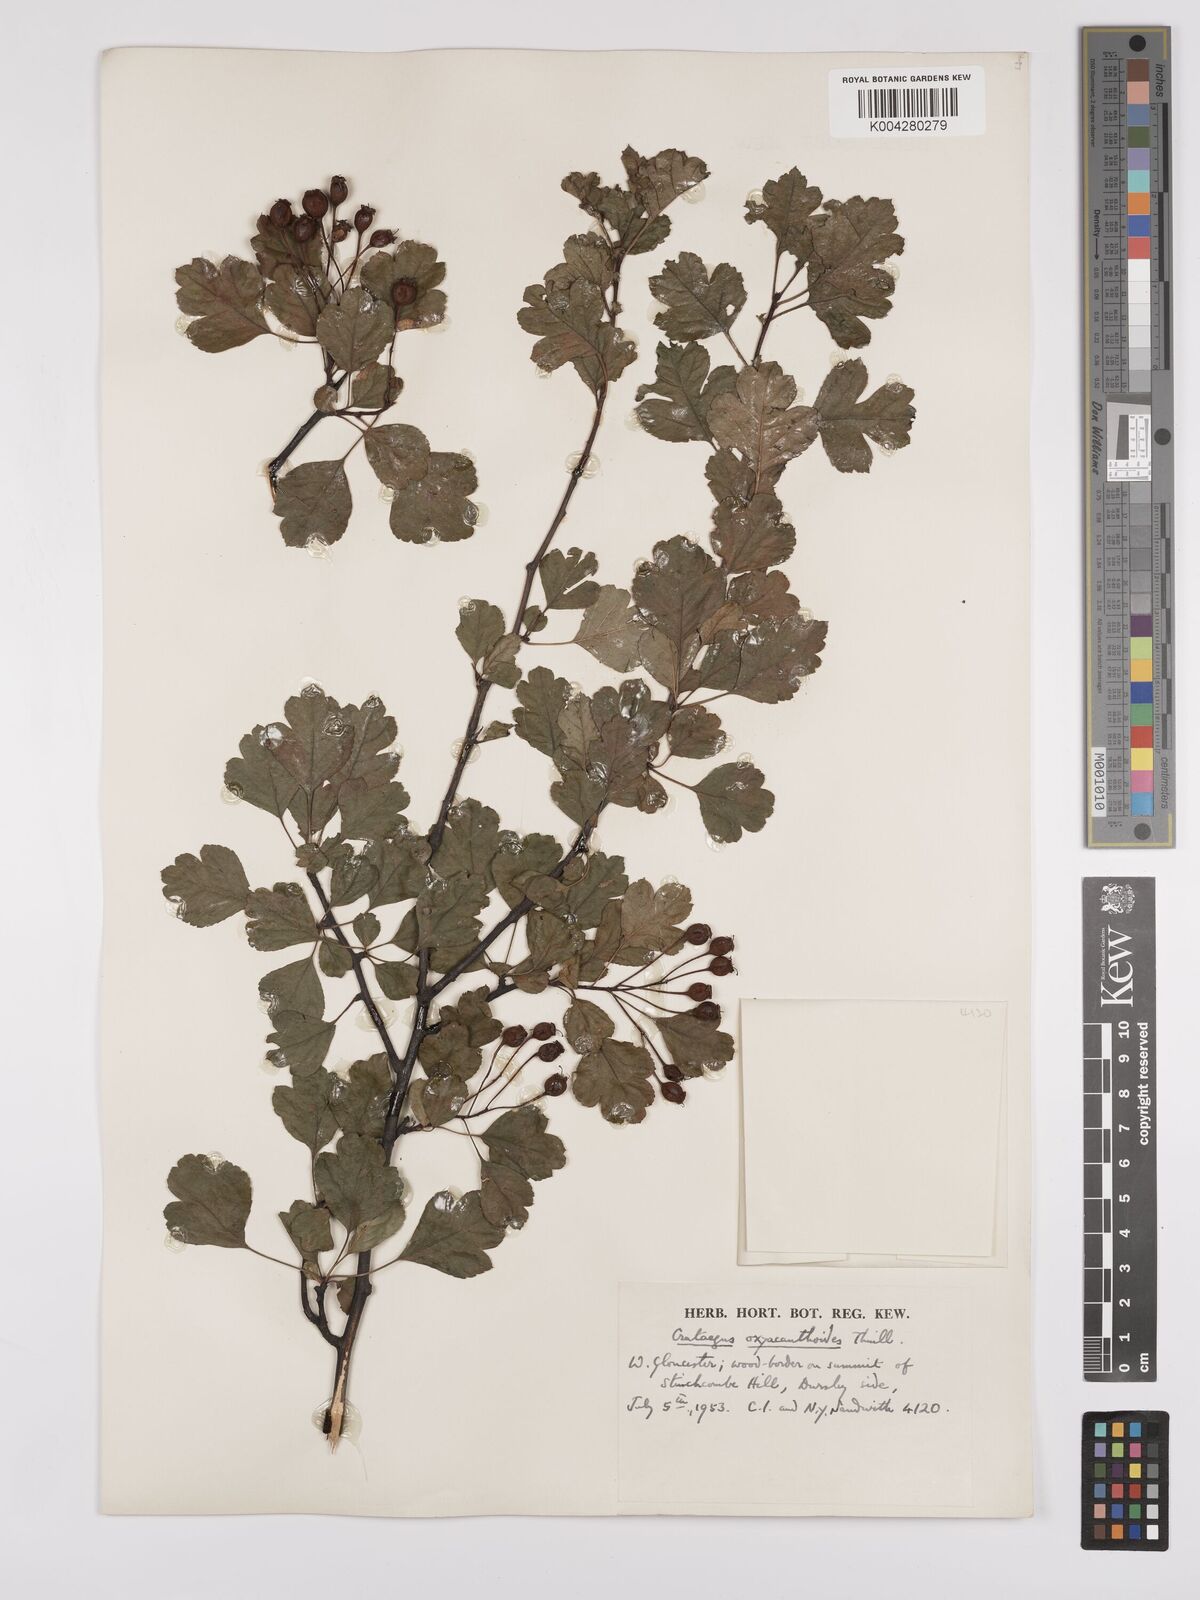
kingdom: Plantae
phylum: Tracheophyta
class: Magnoliopsida
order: Rosales
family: Rosaceae
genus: Crataegus
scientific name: Crataegus laevigata
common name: Midland hawthorn
